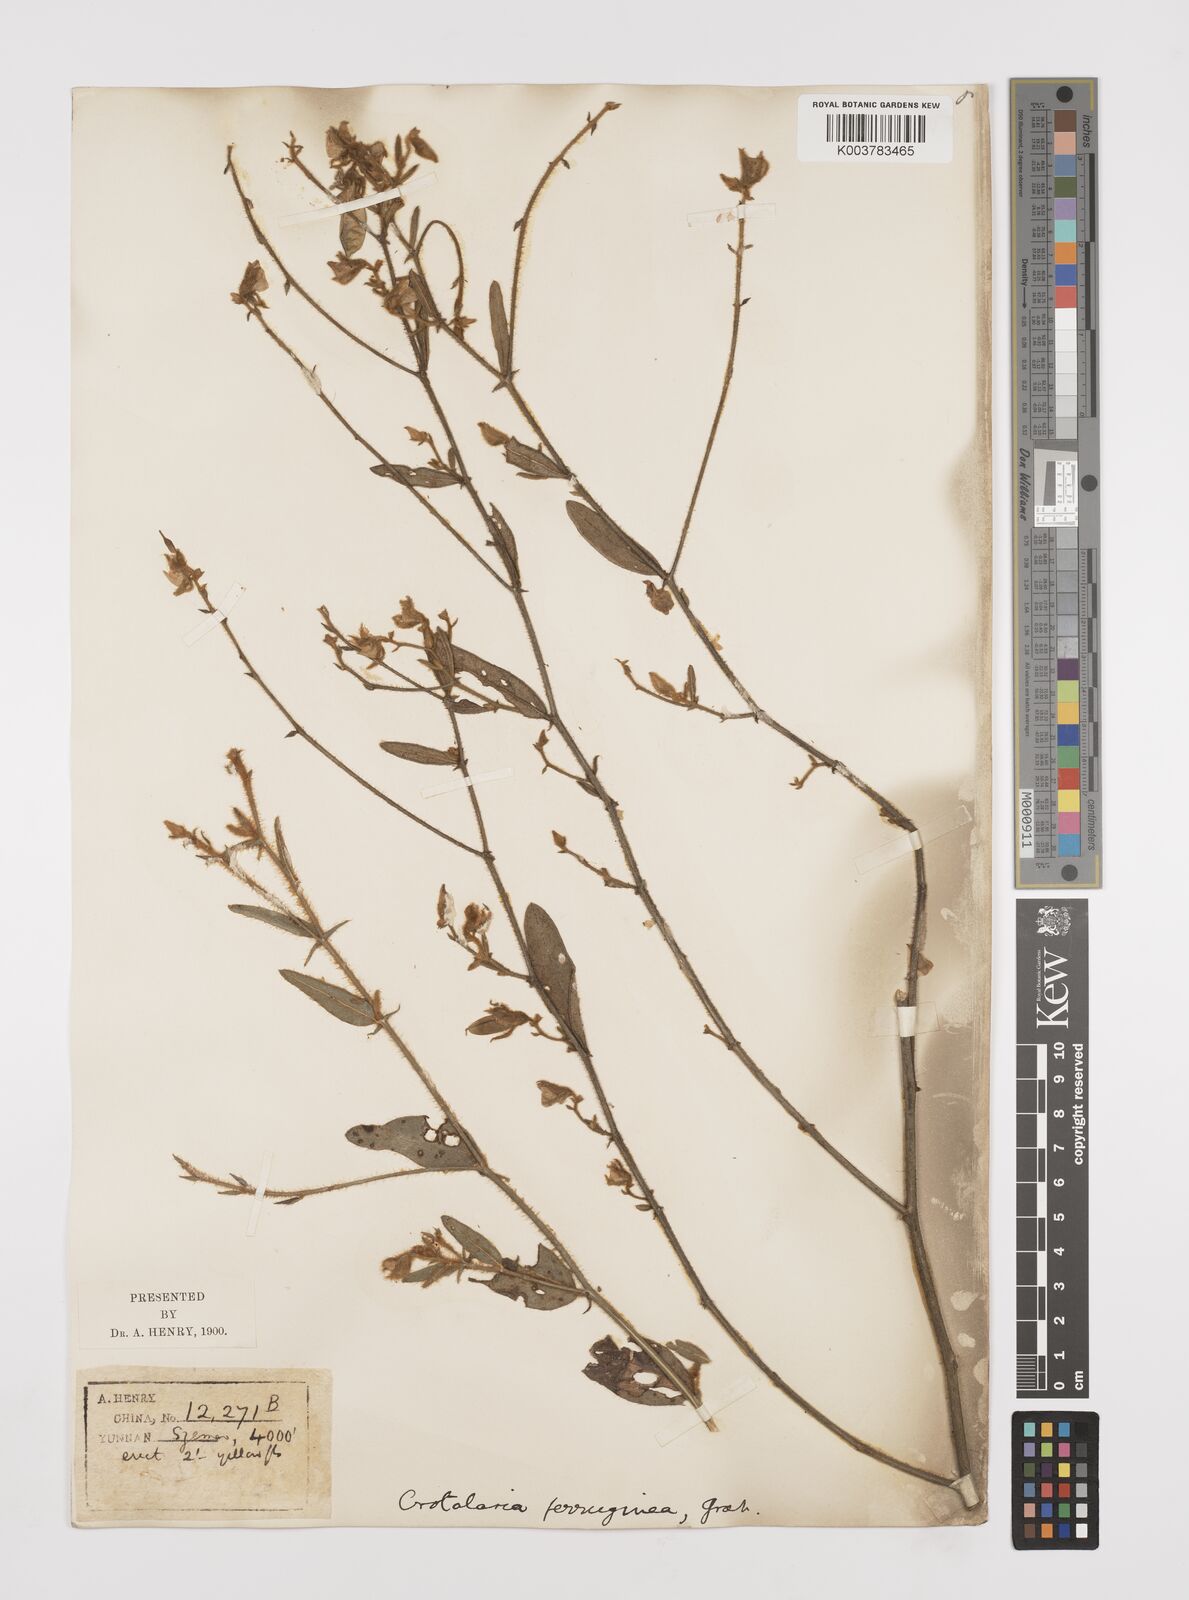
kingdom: Plantae
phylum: Tracheophyta
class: Magnoliopsida
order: Fabales
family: Fabaceae
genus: Crotalaria
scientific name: Crotalaria lejoloba
